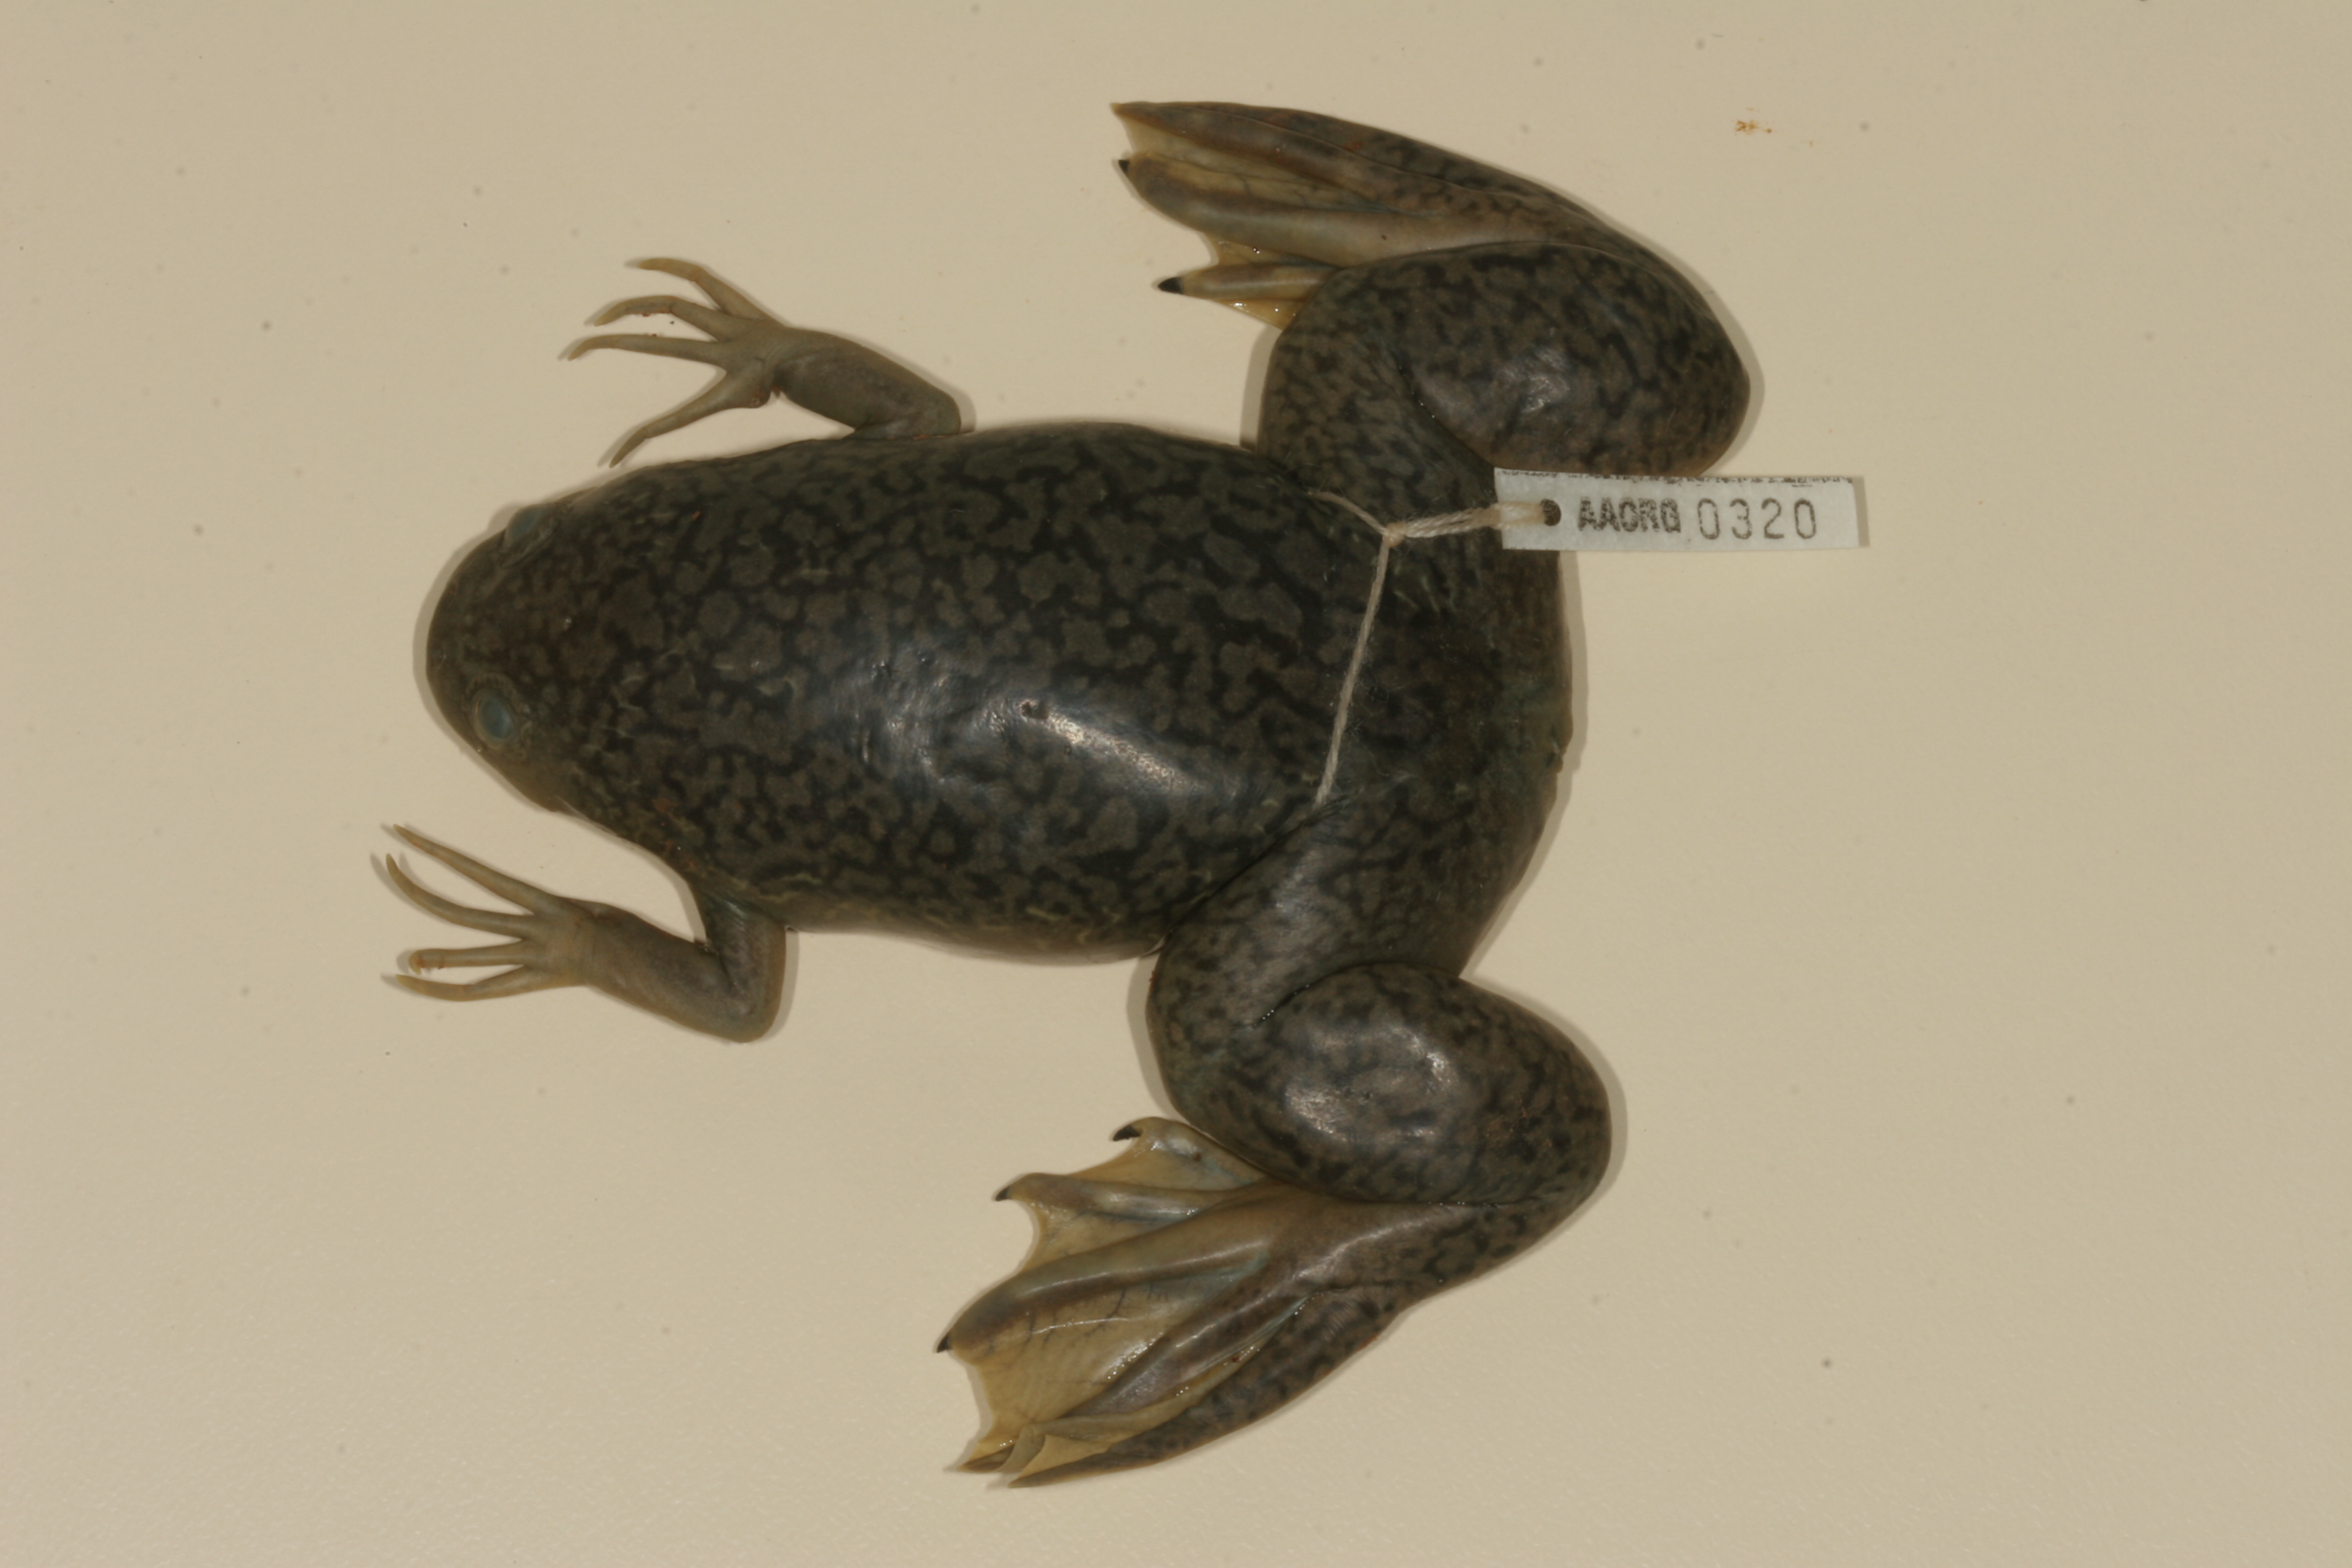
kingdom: Animalia
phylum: Chordata
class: Amphibia
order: Anura
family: Pipidae
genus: Xenopus
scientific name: Xenopus laevis
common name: African clawed frog
